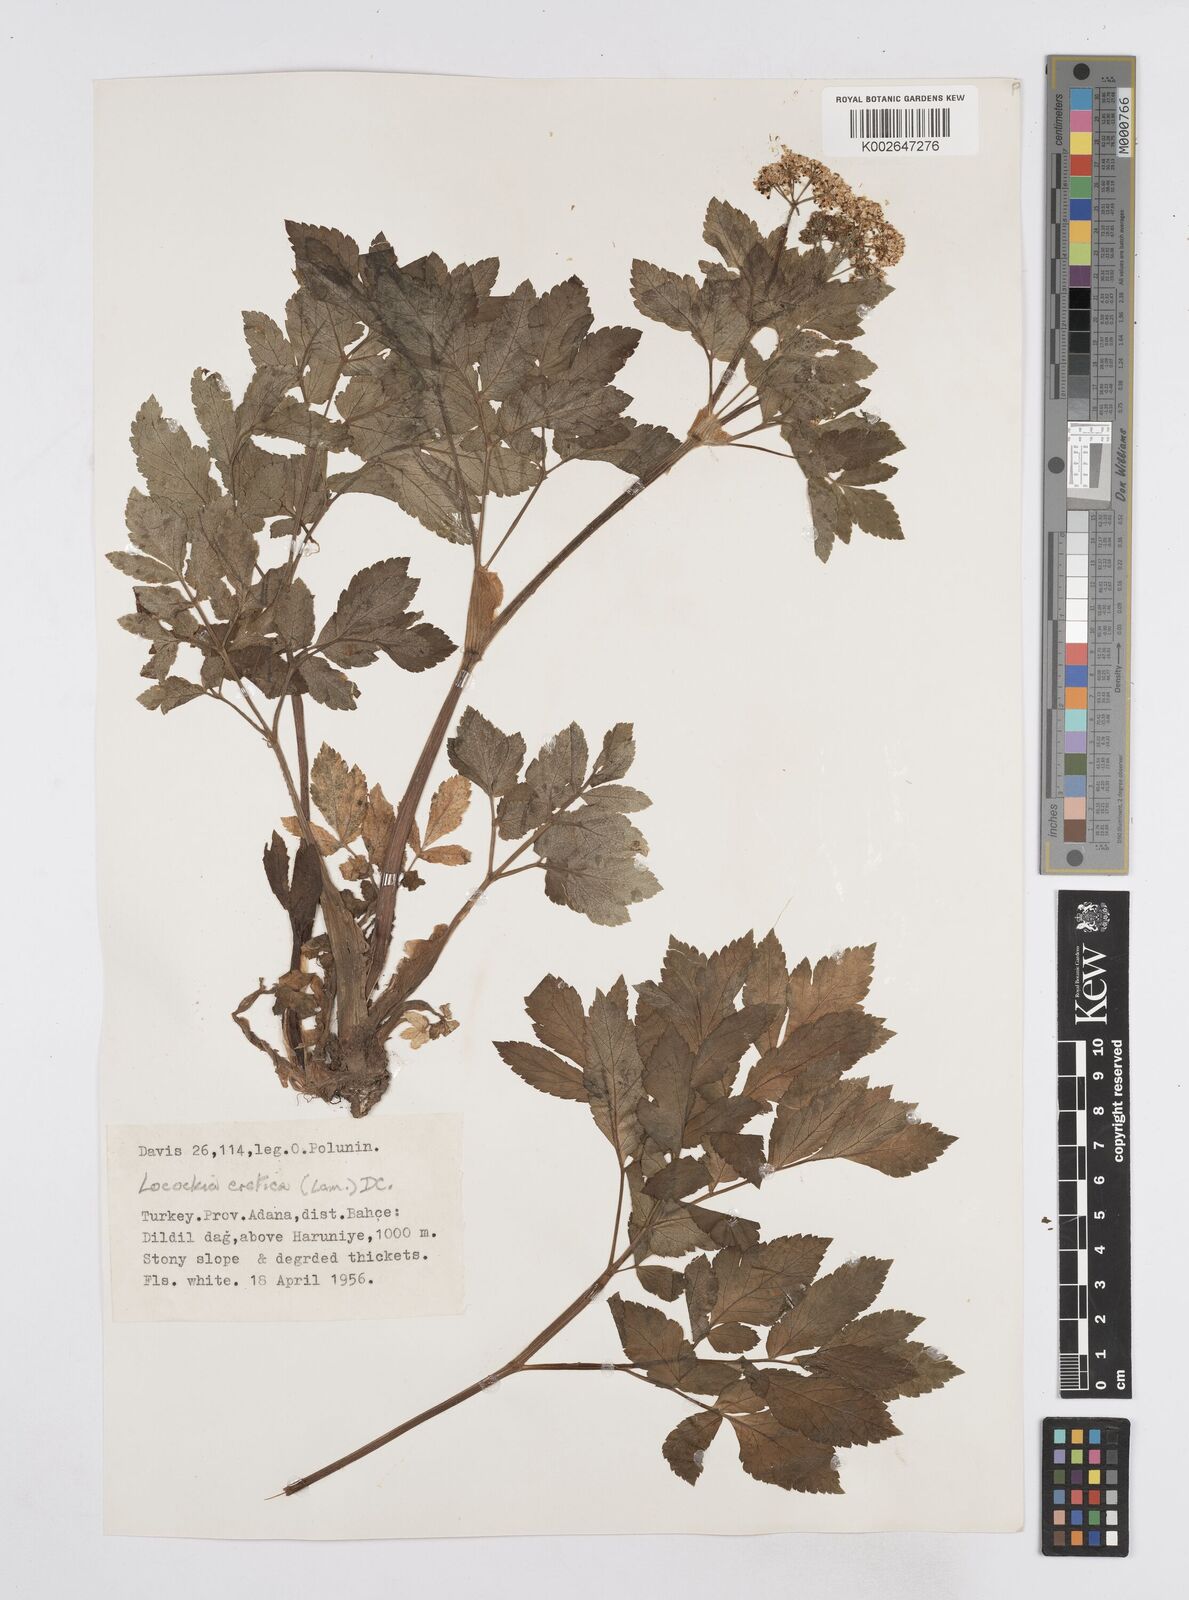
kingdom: Plantae
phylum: Tracheophyta
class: Magnoliopsida
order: Apiales
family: Apiaceae
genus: Lecokia
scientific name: Lecokia cretica
